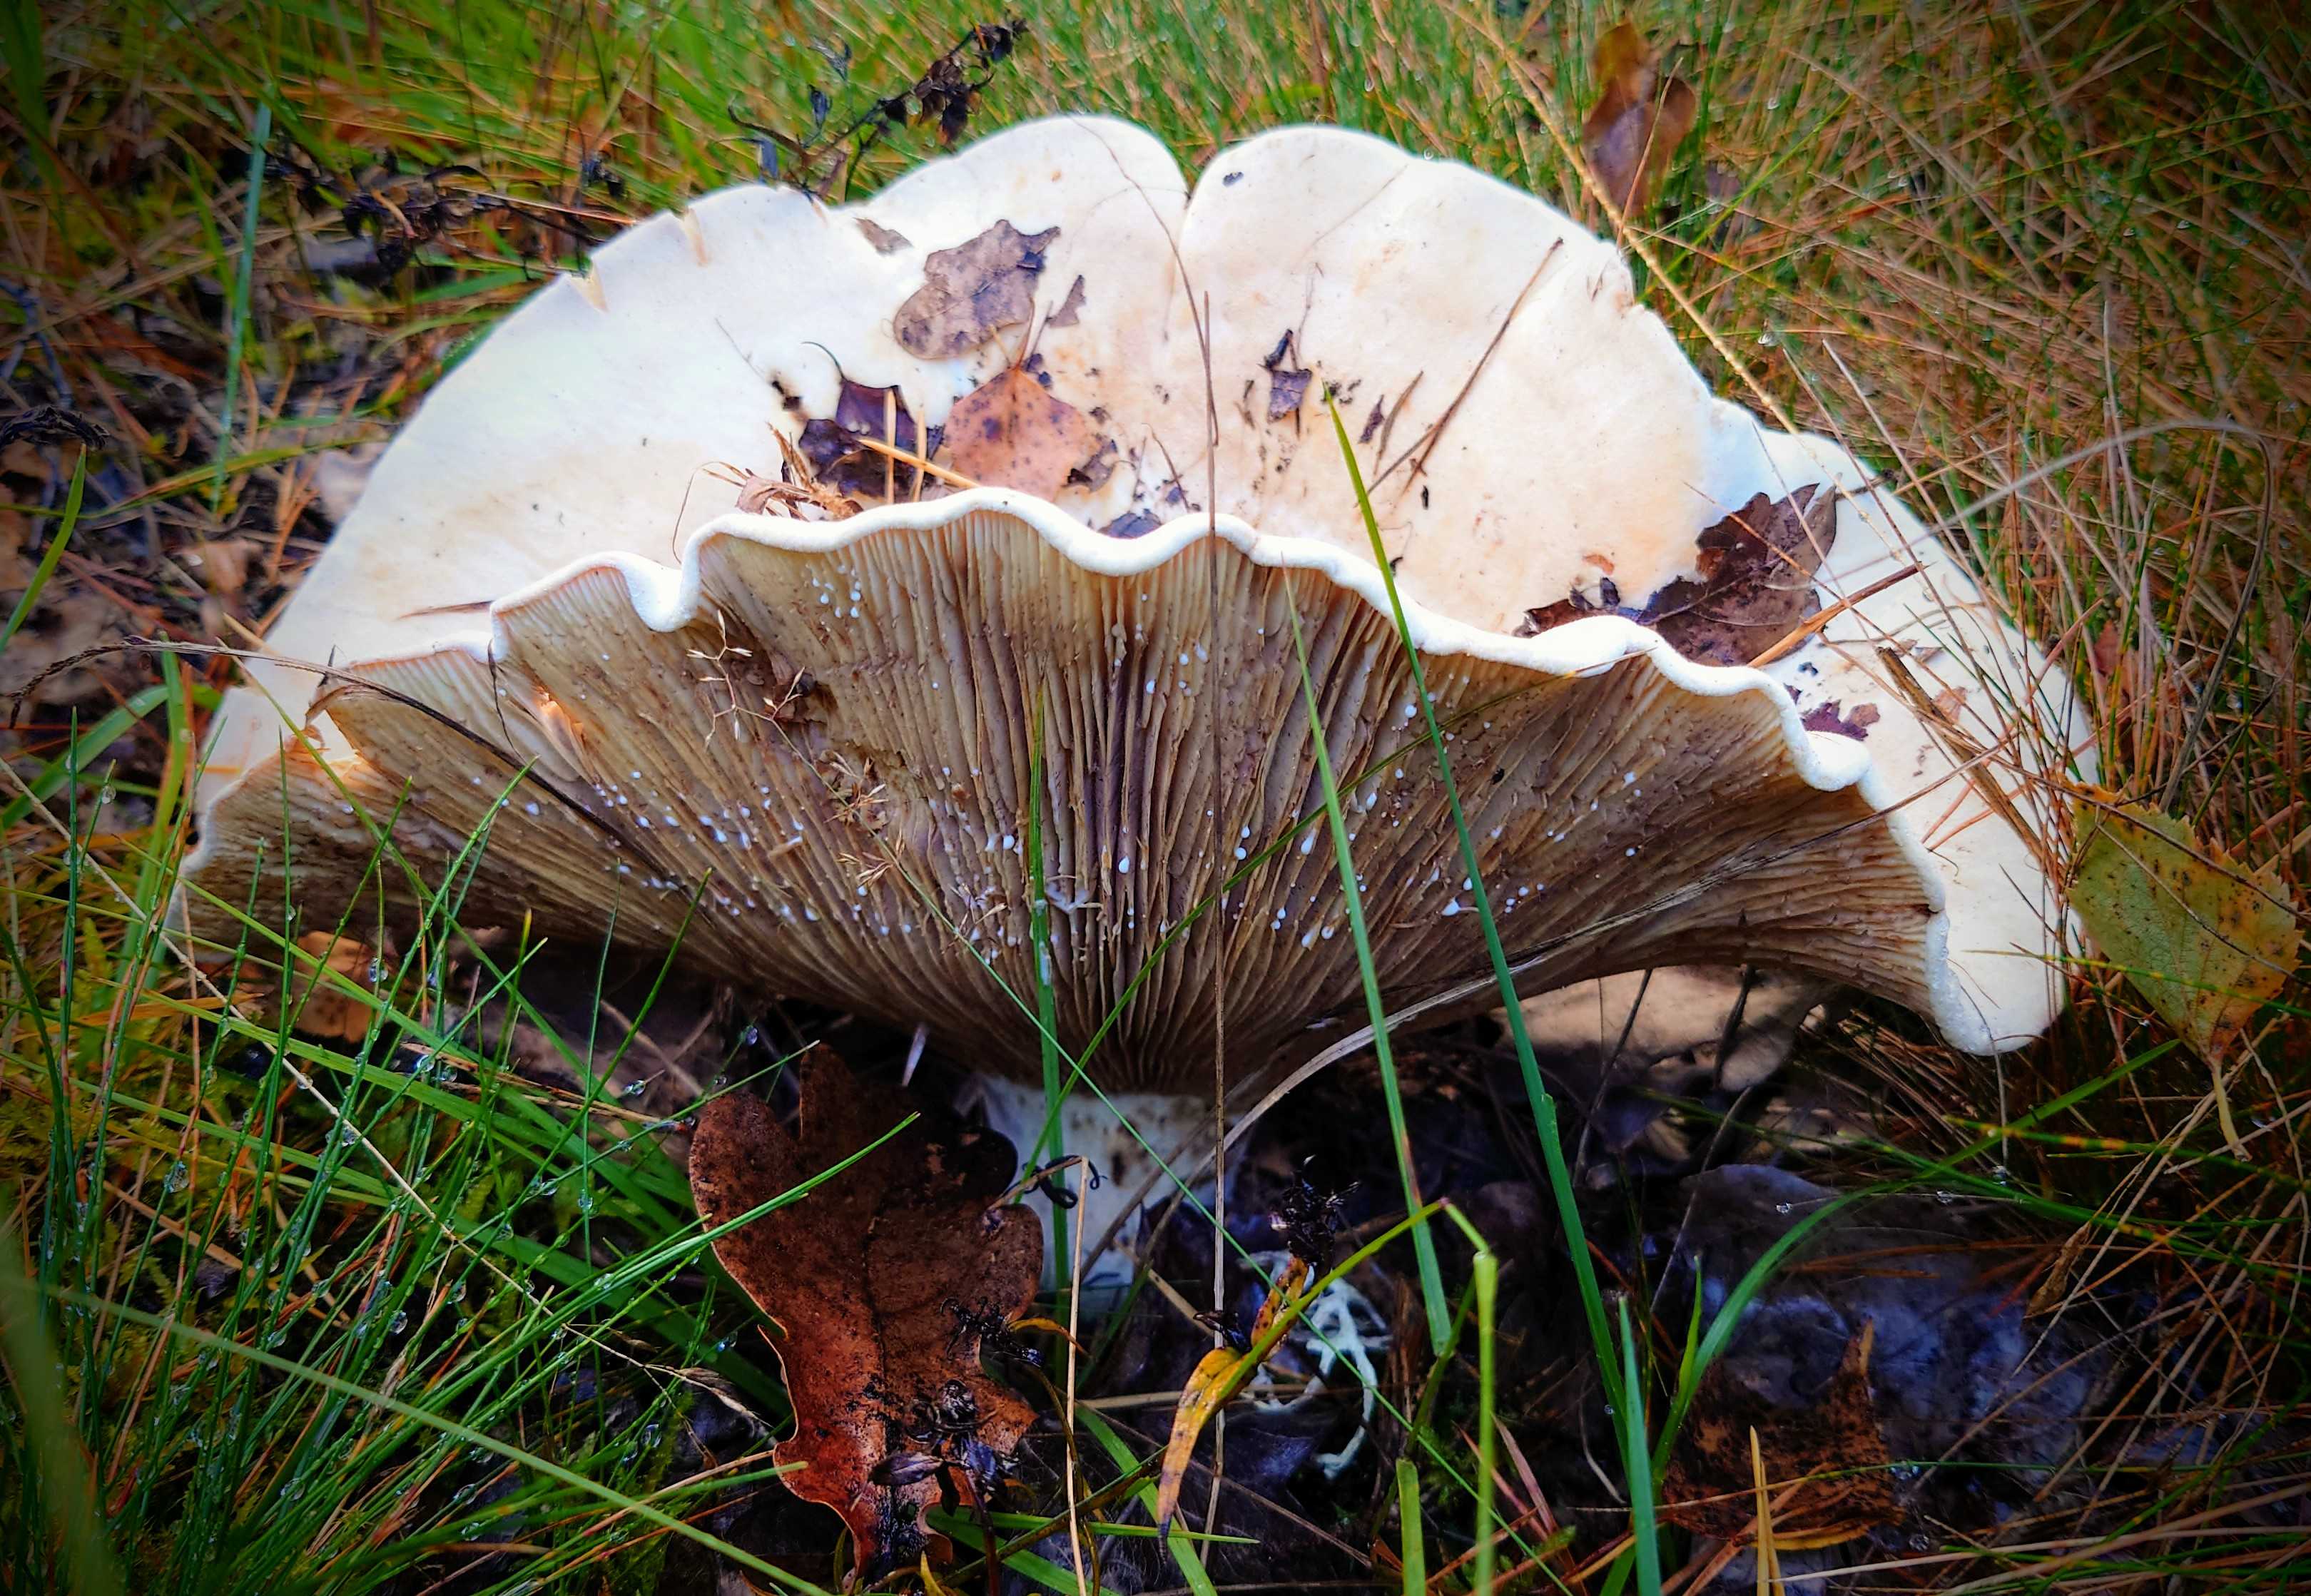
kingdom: Fungi
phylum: Basidiomycota
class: Agaricomycetes
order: Russulales
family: Russulaceae
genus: Lactifluus
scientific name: Lactifluus vellereus
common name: hvidfiltet mælkehat
